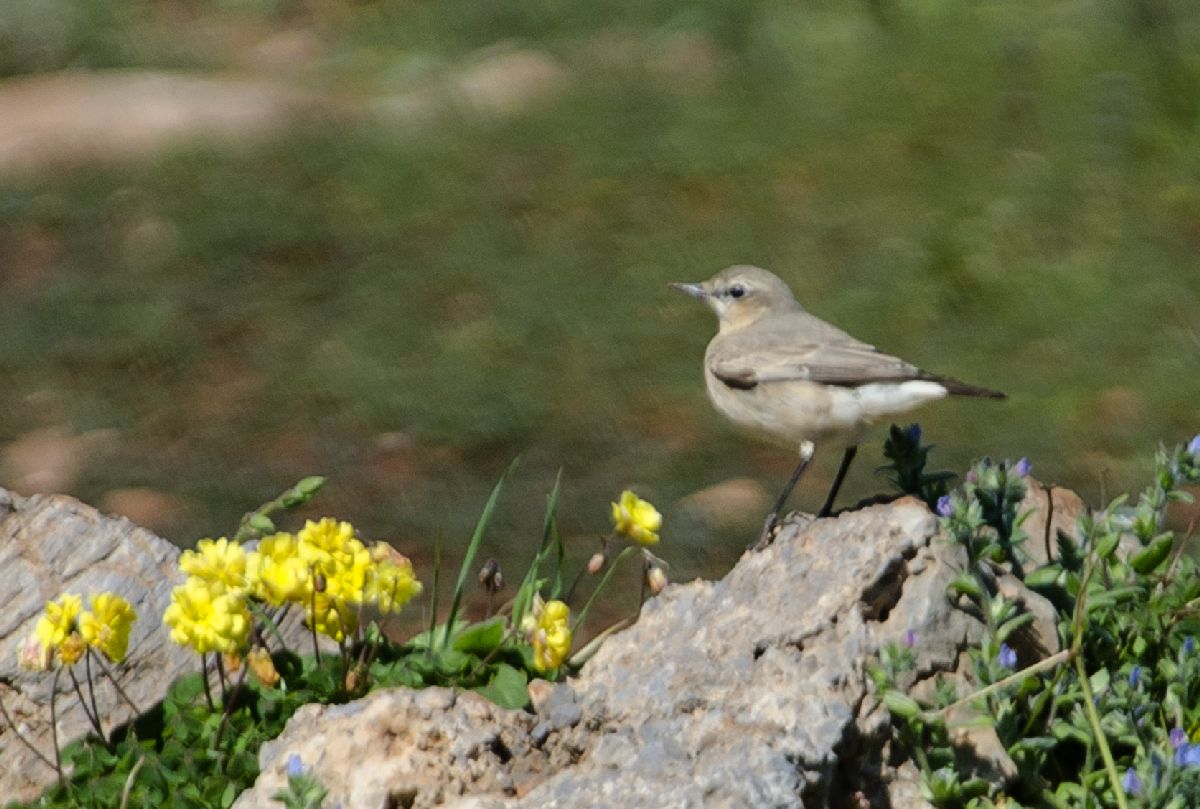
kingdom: Animalia
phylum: Chordata
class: Aves
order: Passeriformes
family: Muscicapidae
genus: Oenanthe
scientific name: Oenanthe oenanthe
